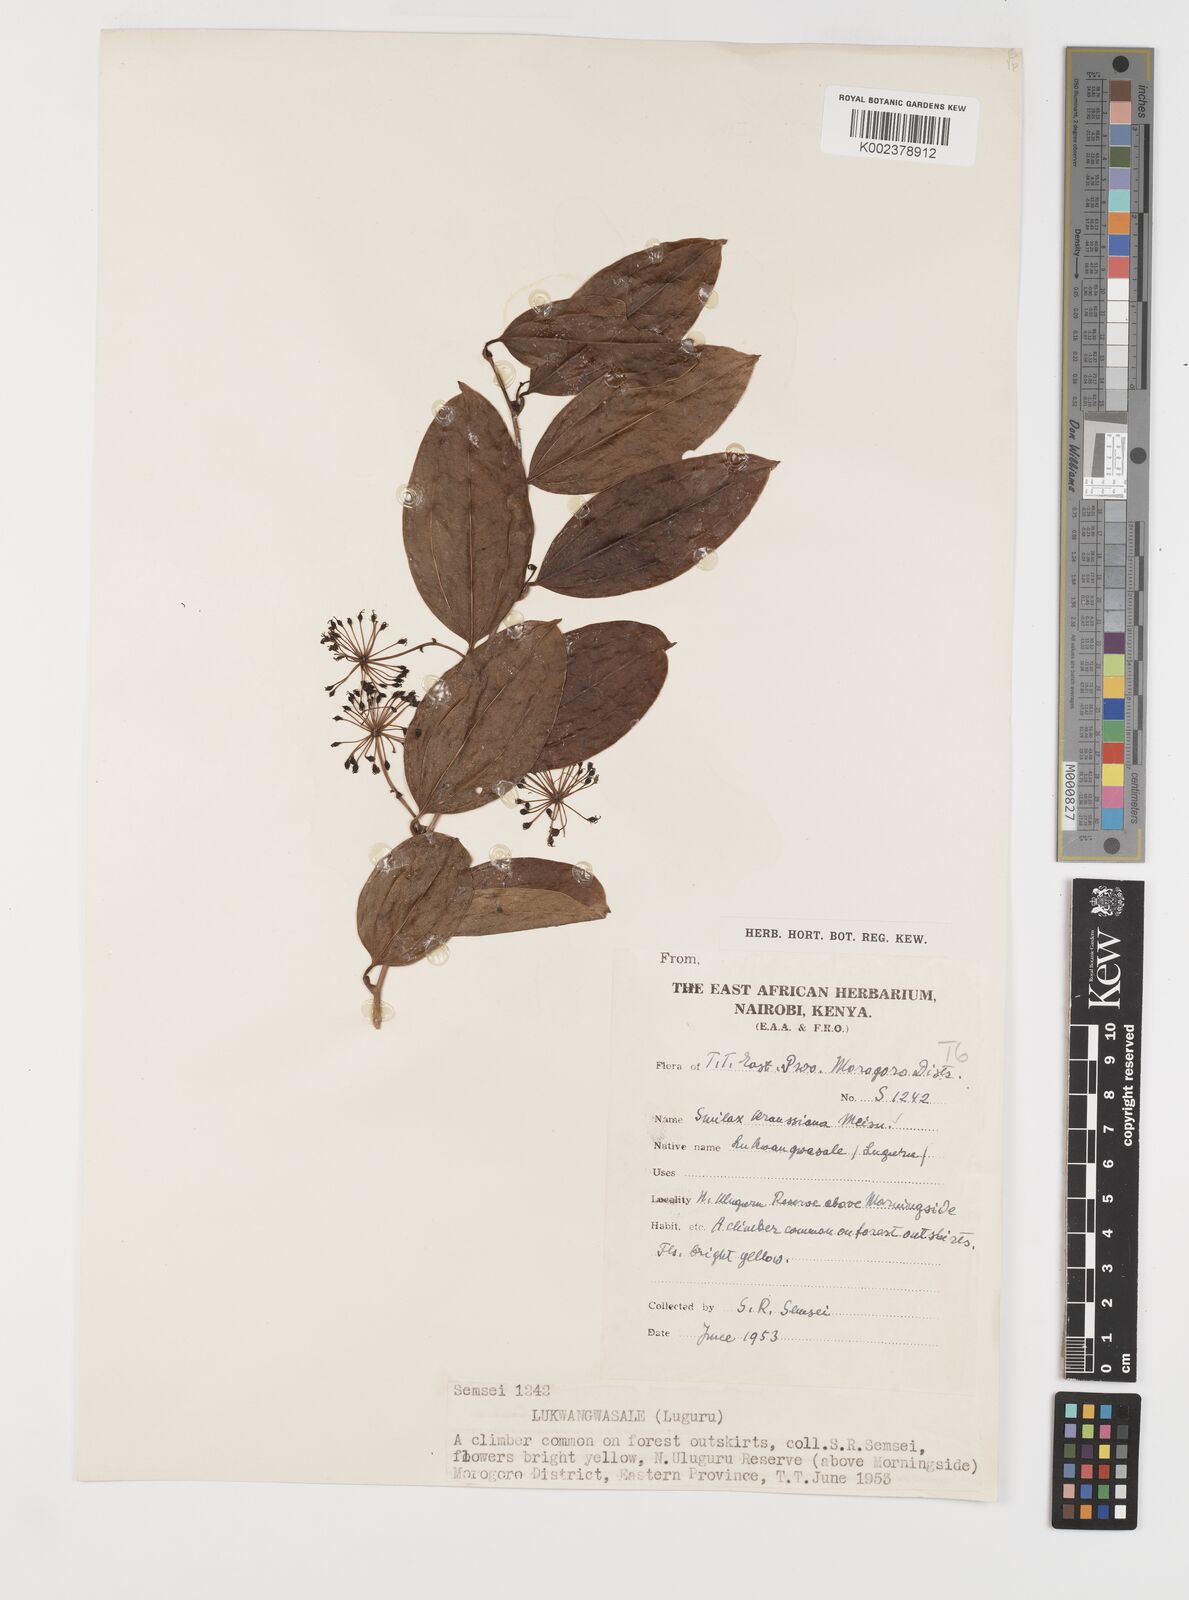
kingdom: Plantae
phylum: Tracheophyta
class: Liliopsida
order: Liliales
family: Smilacaceae
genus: Smilax
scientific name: Smilax anceps
